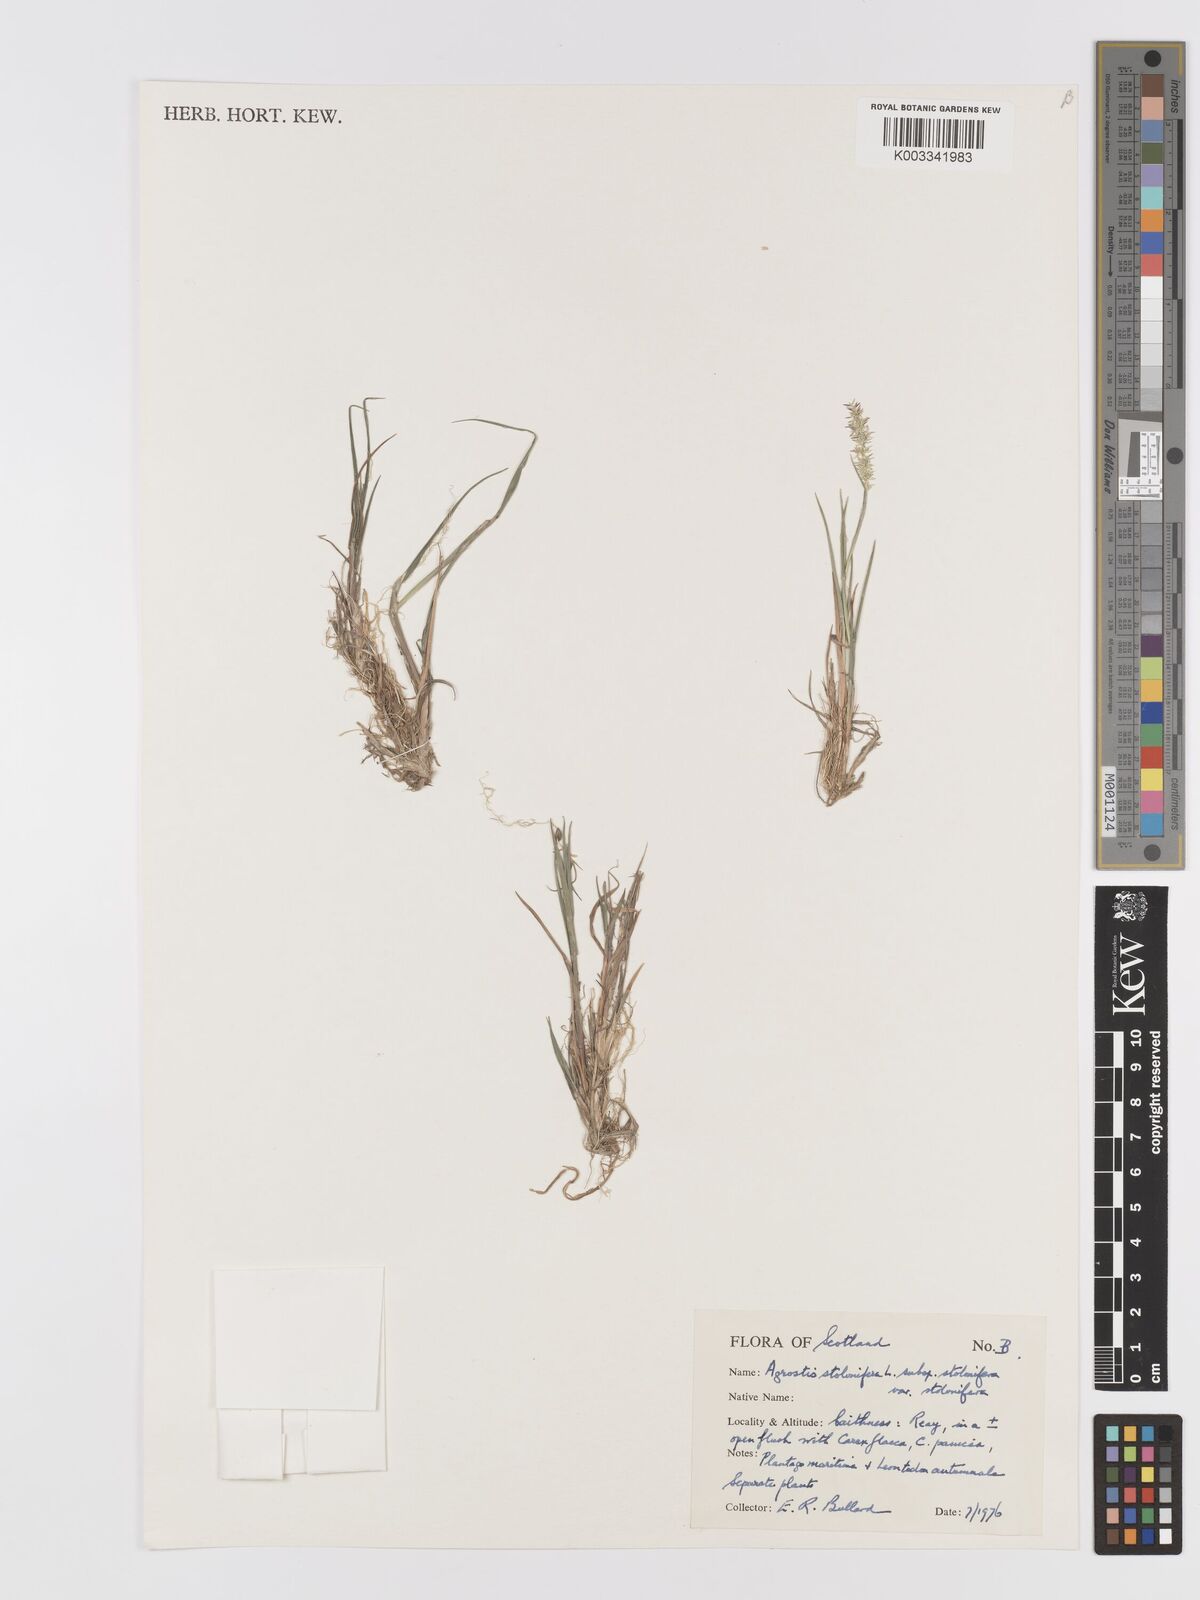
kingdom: Plantae
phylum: Tracheophyta
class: Liliopsida
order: Poales
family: Poaceae
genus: Agrostis
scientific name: Agrostis stolonifera
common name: Creeping bentgrass
